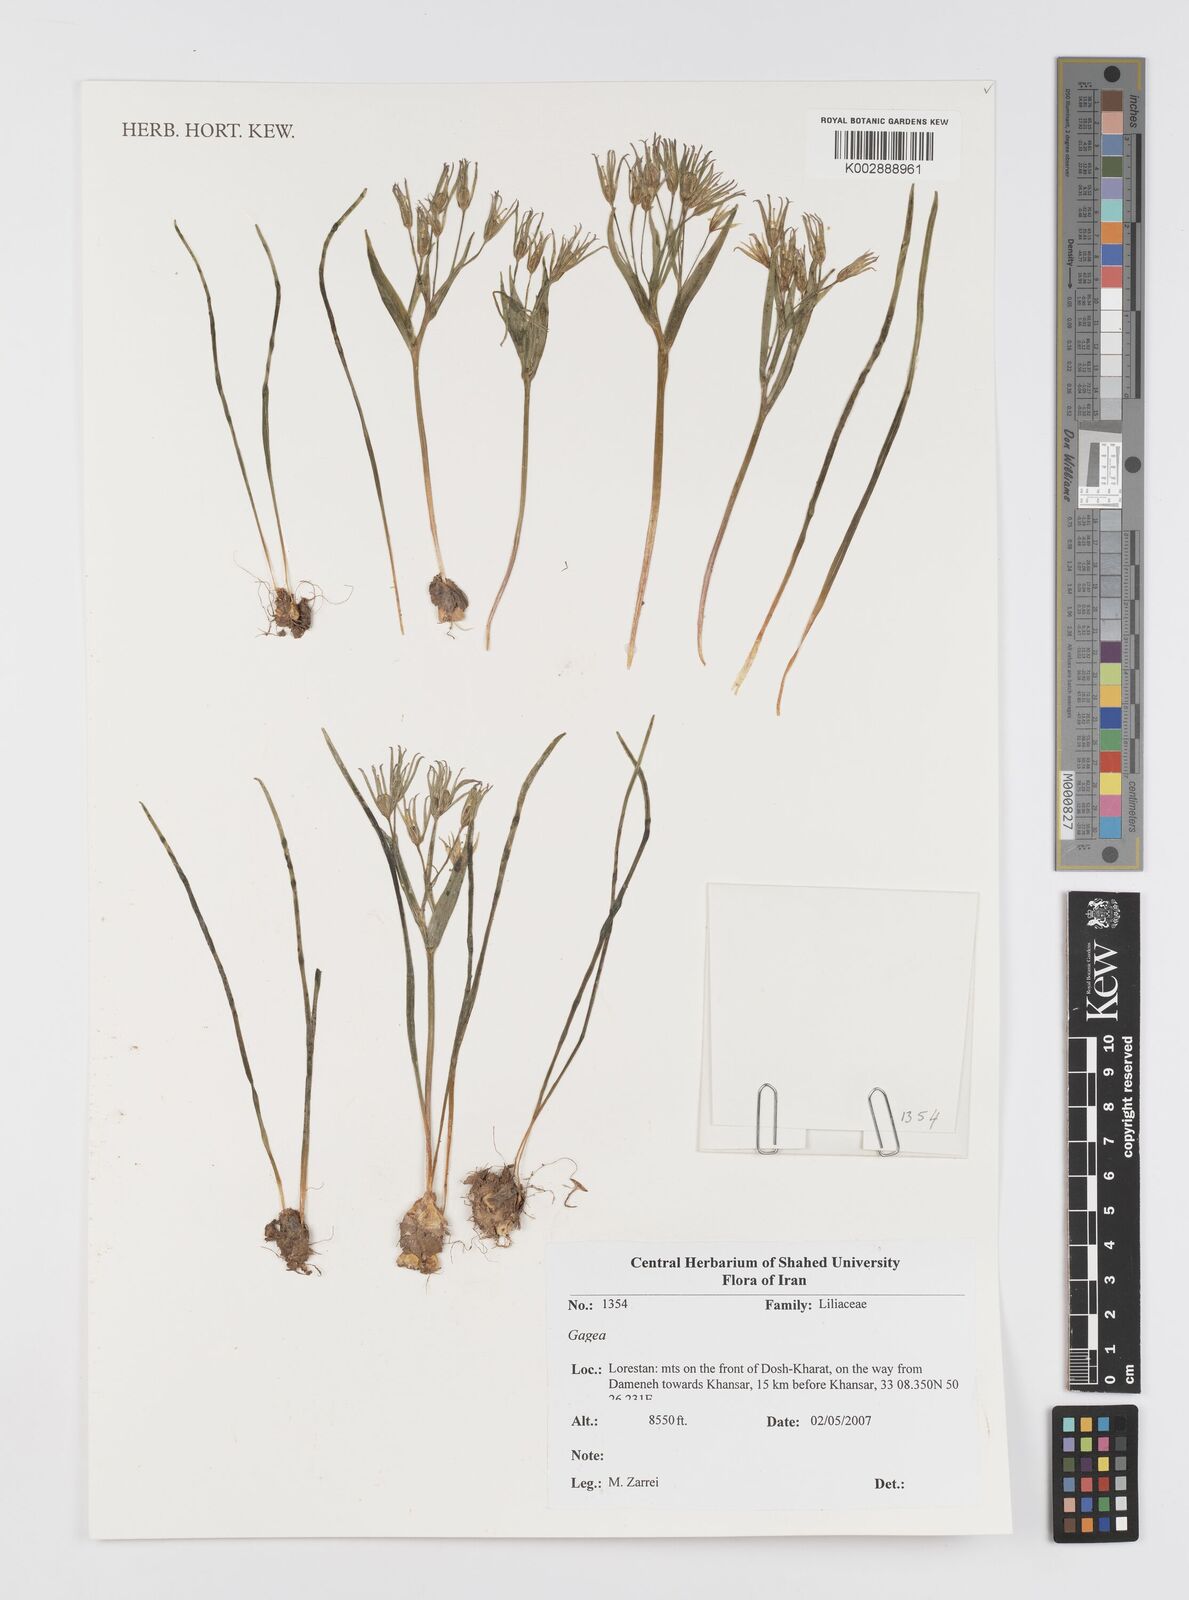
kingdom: Plantae
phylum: Tracheophyta
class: Liliopsida
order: Liliales
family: Liliaceae
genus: Gagea
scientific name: Gagea
